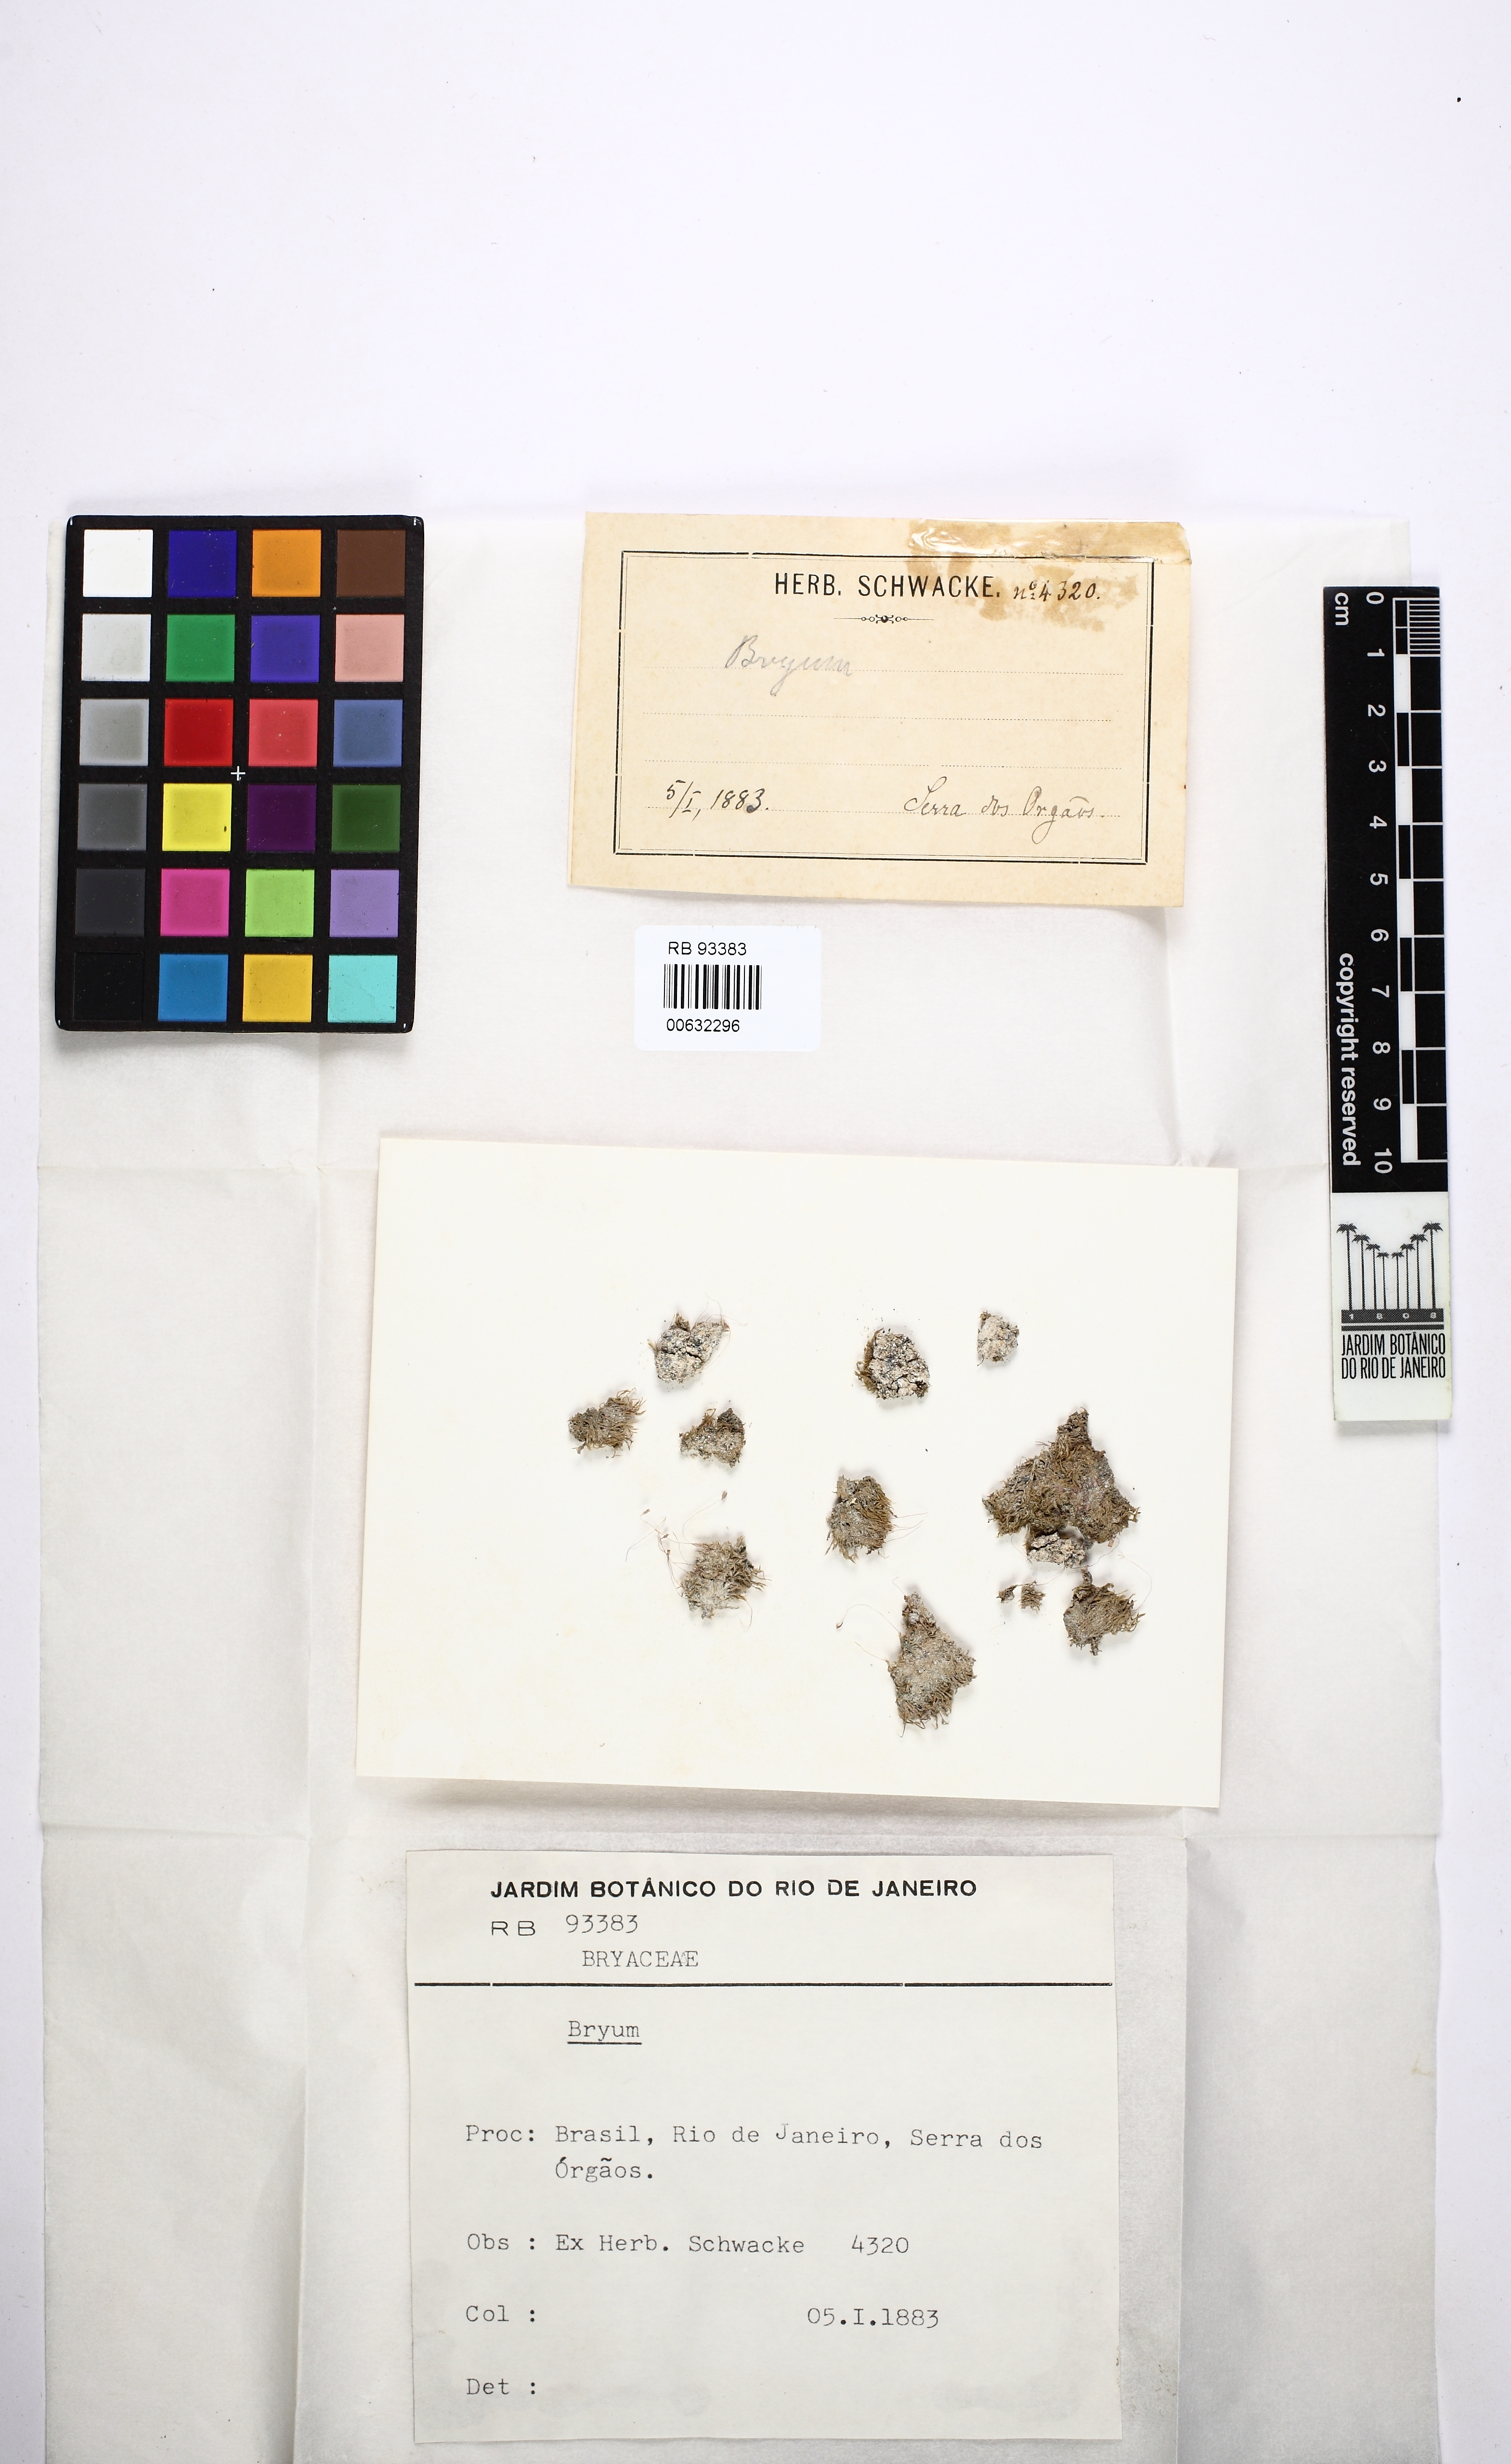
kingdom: Plantae
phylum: Bryophyta
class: Bryopsida
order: Bryales
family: Bryaceae
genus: Bryum
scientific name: Bryum
